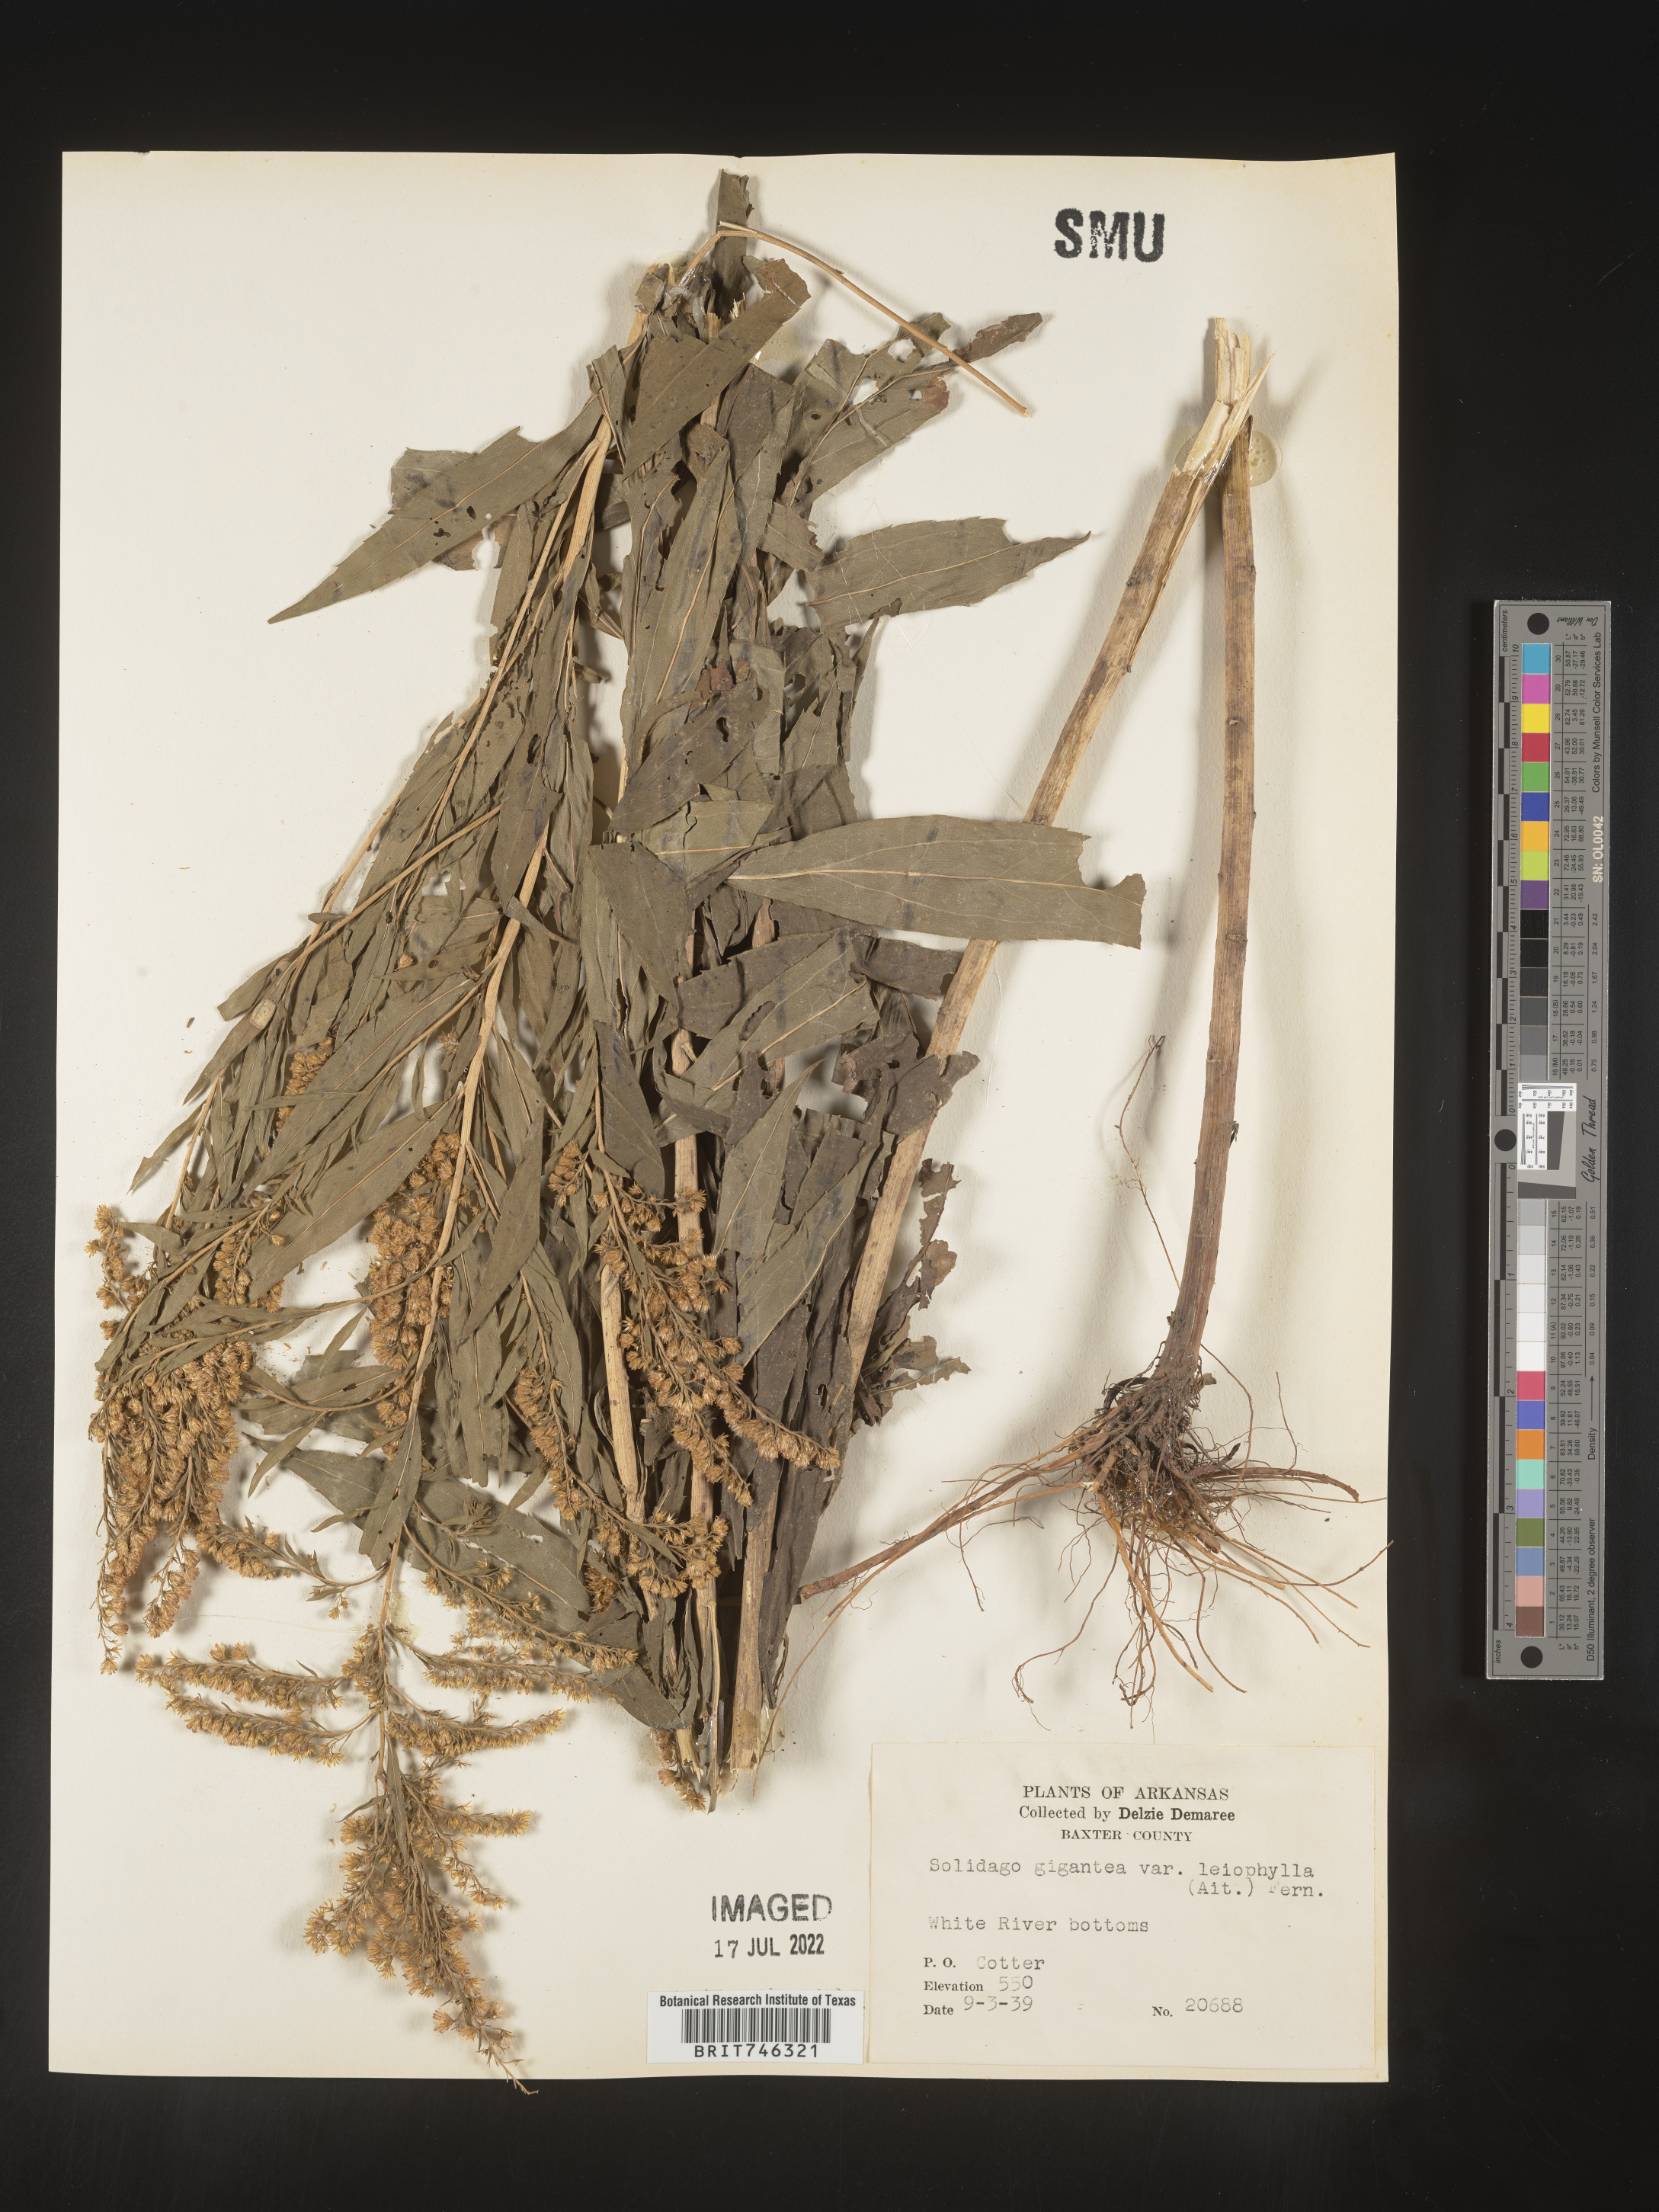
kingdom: Plantae
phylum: Tracheophyta
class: Magnoliopsida
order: Asterales
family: Asteraceae
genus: Solidago
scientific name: Solidago gigantea
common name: Giant goldenrod
